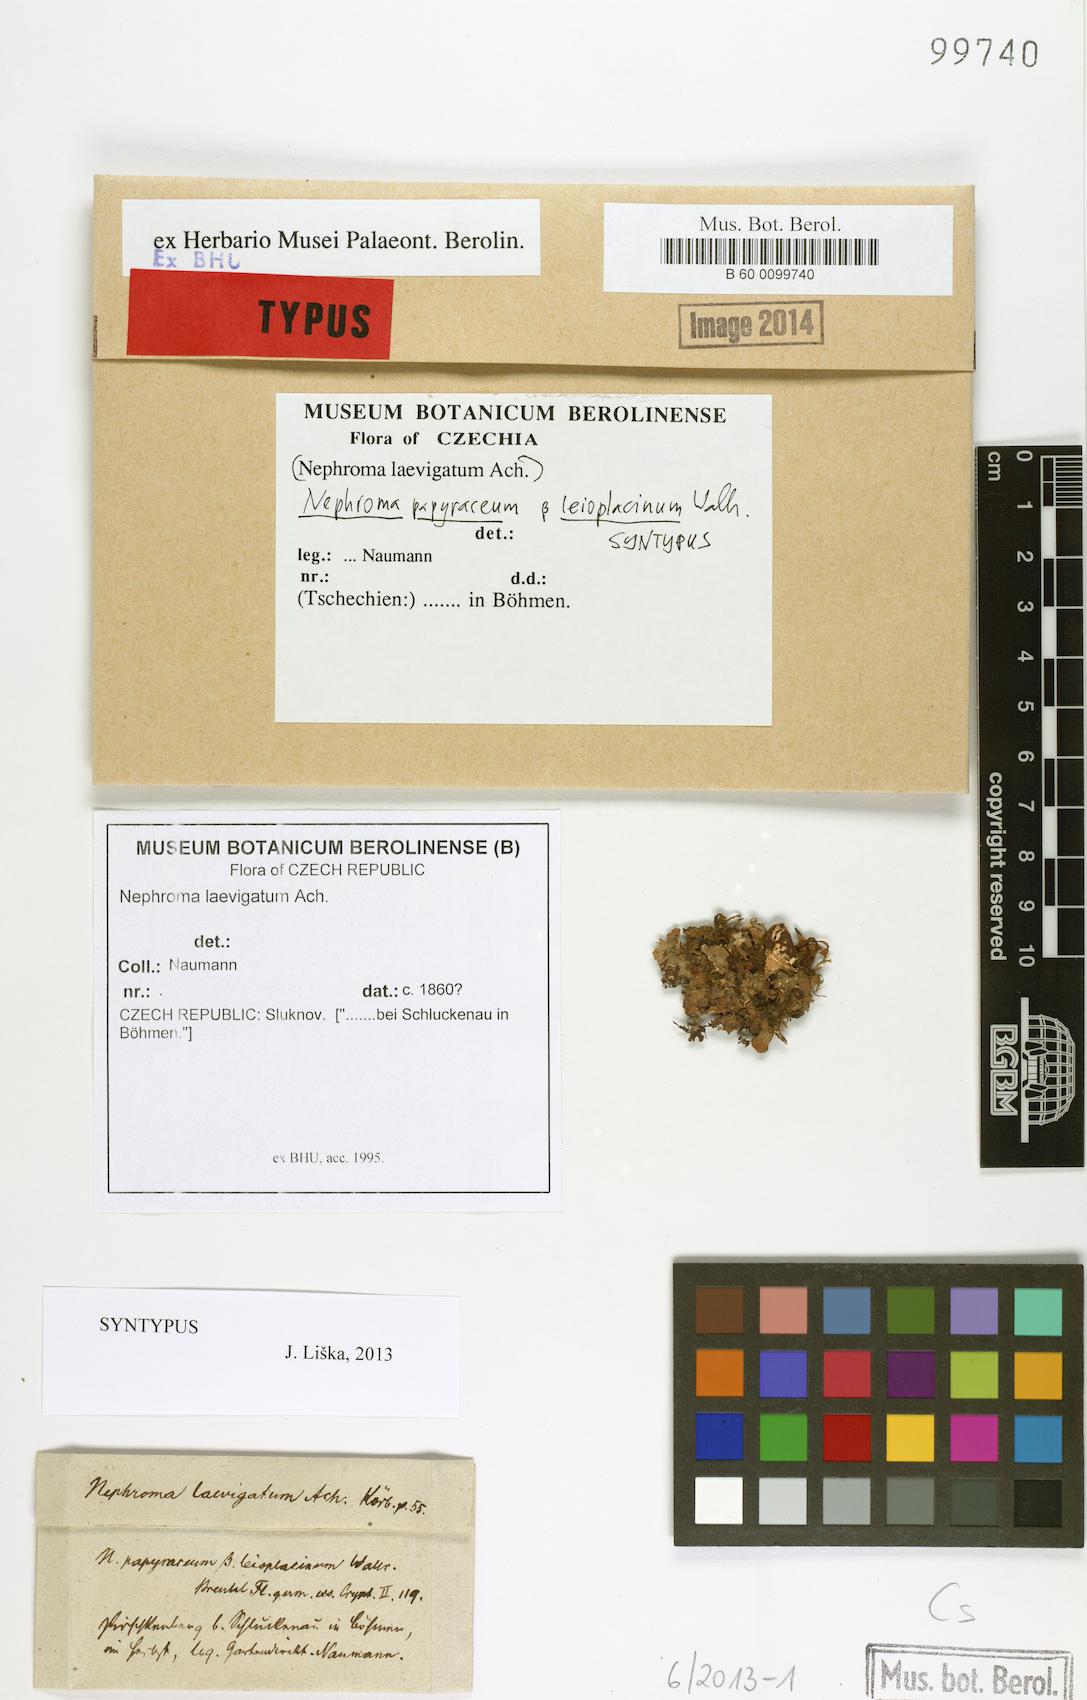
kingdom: Fungi
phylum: Ascomycota
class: Lecanoromycetes
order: Peltigerales
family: Nephromataceae
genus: Nephroma
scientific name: Nephroma laevigatum
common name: Mustard kidney lichen
